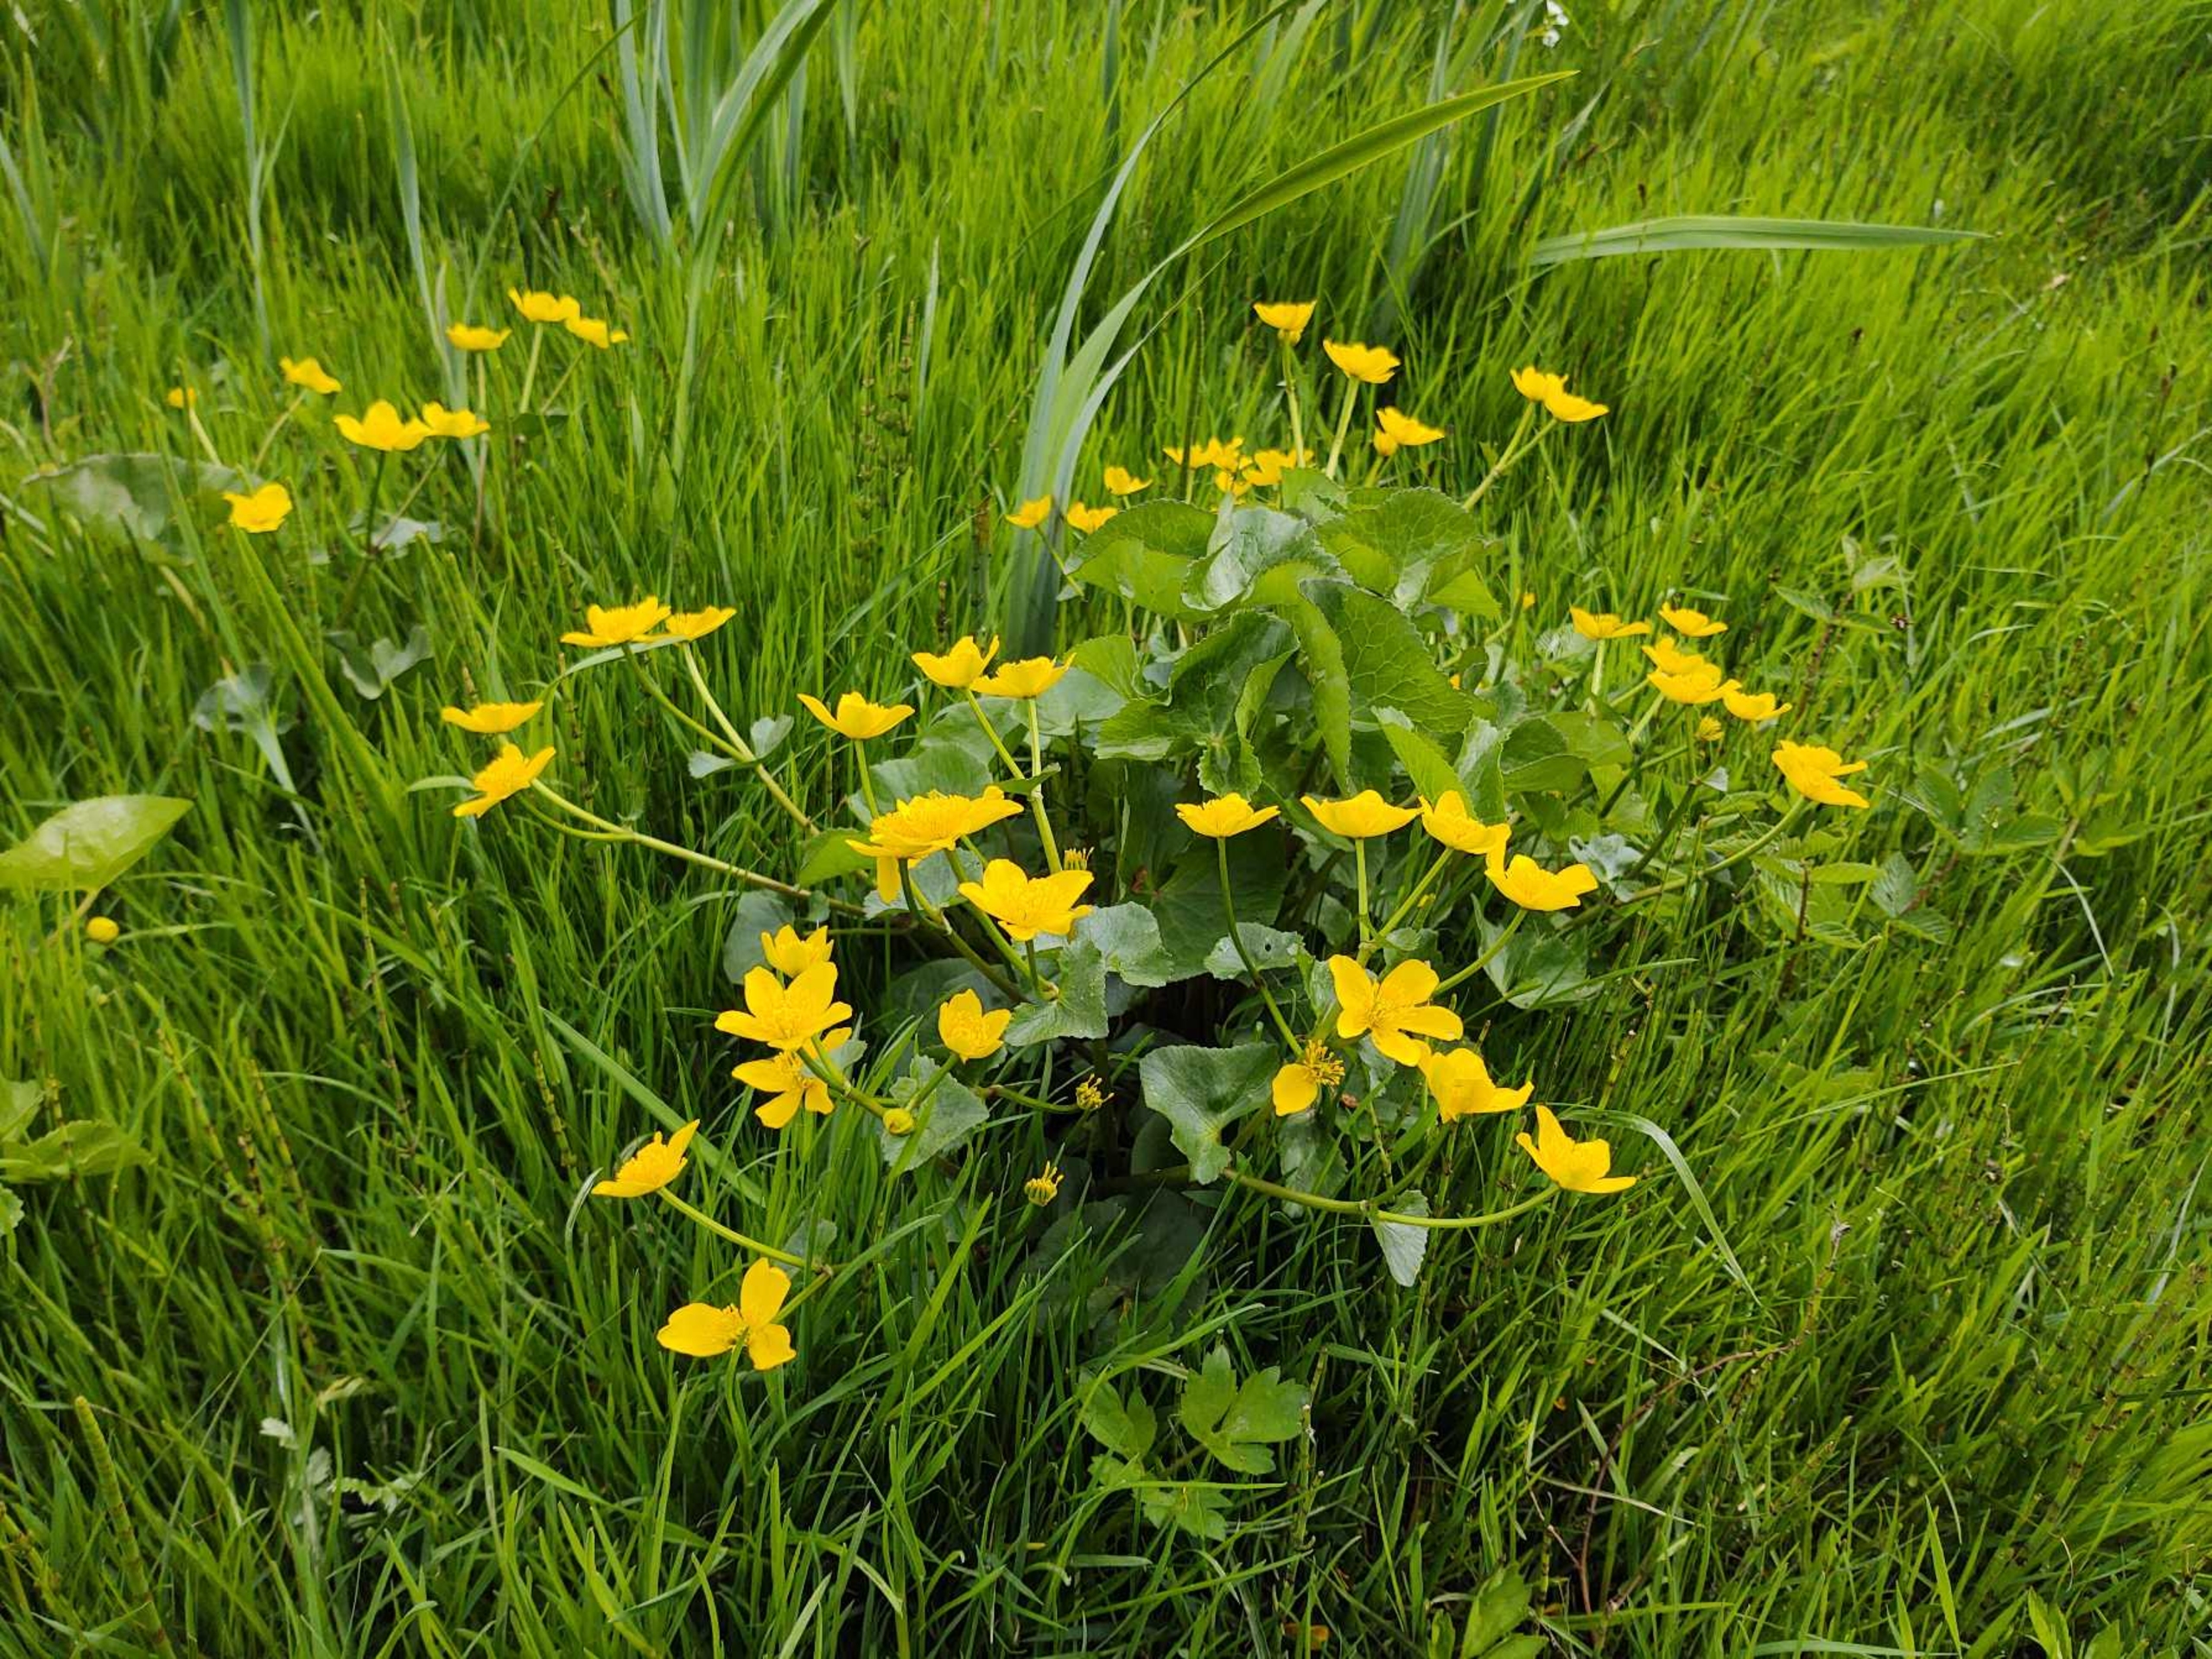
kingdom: Plantae
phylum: Tracheophyta
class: Magnoliopsida
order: Ranunculales
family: Ranunculaceae
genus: Caltha
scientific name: Caltha palustris
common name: Eng-kabbeleje
